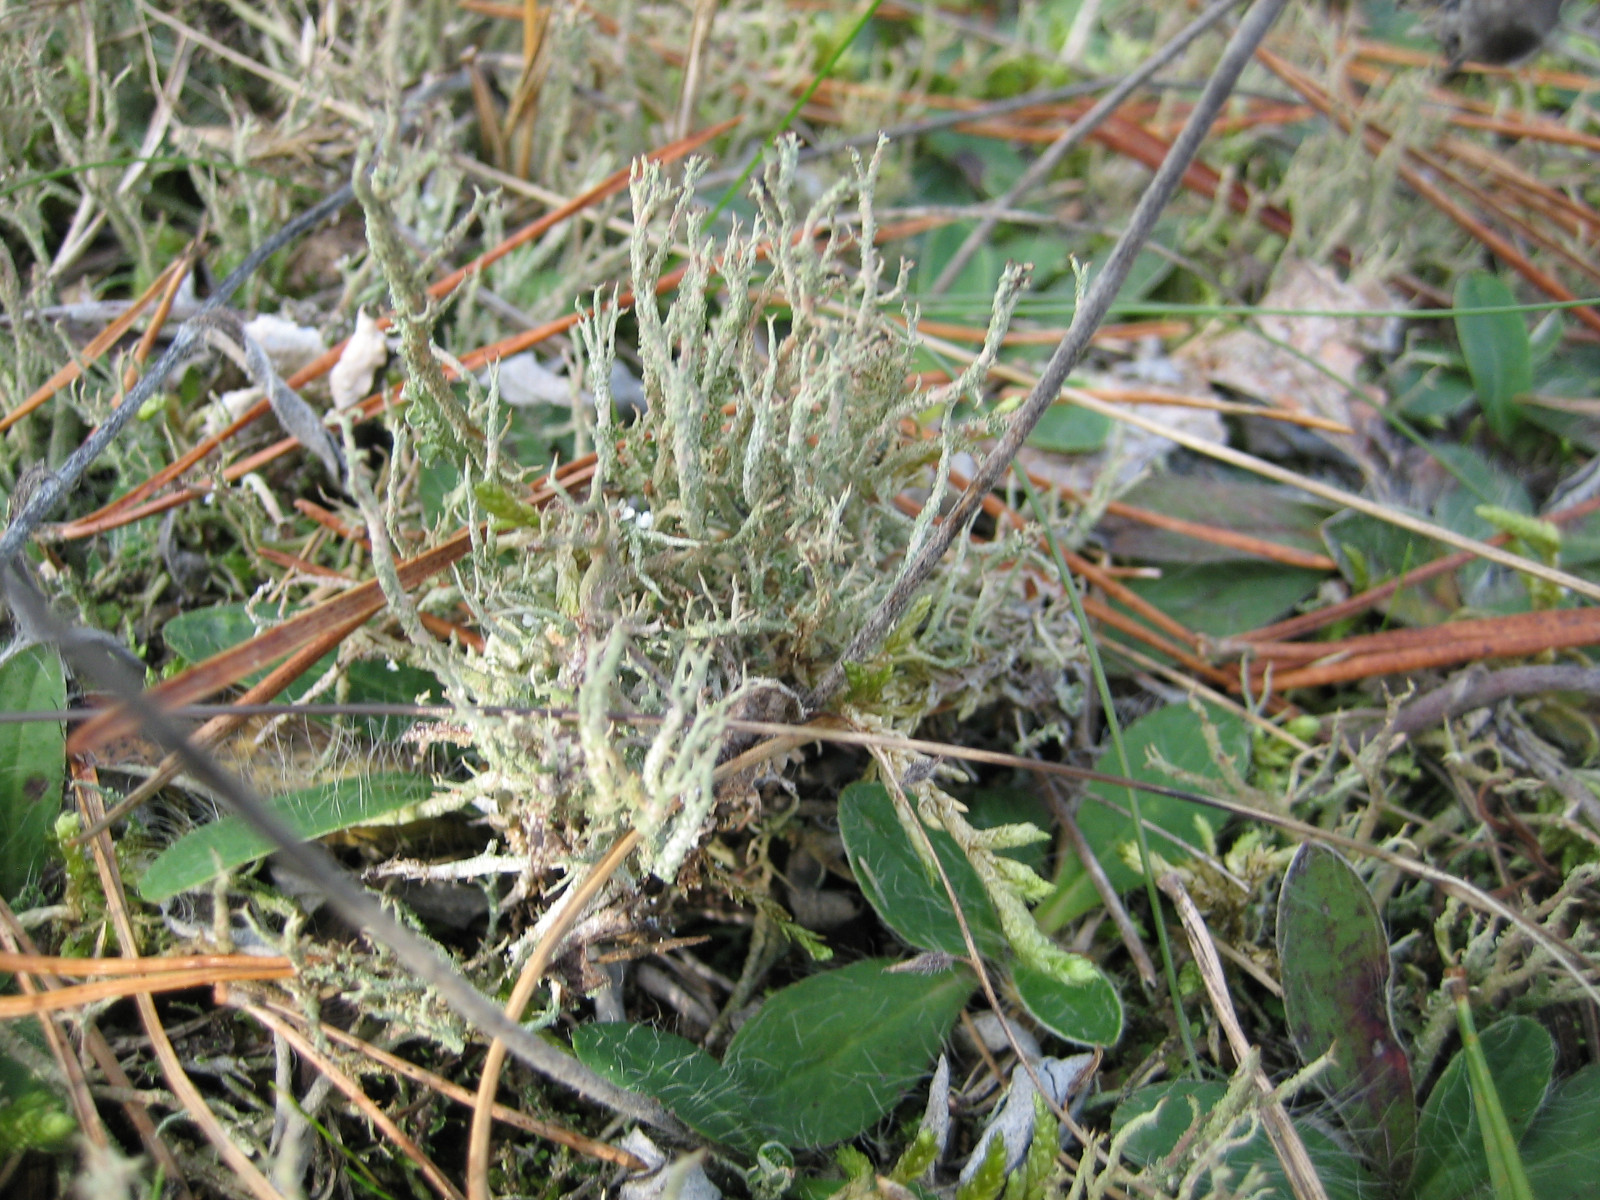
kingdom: Fungi
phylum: Ascomycota
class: Lecanoromycetes
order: Lecanorales
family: Cladoniaceae
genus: Cladonia
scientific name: Cladonia scabriuscula
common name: ru bægerlav
